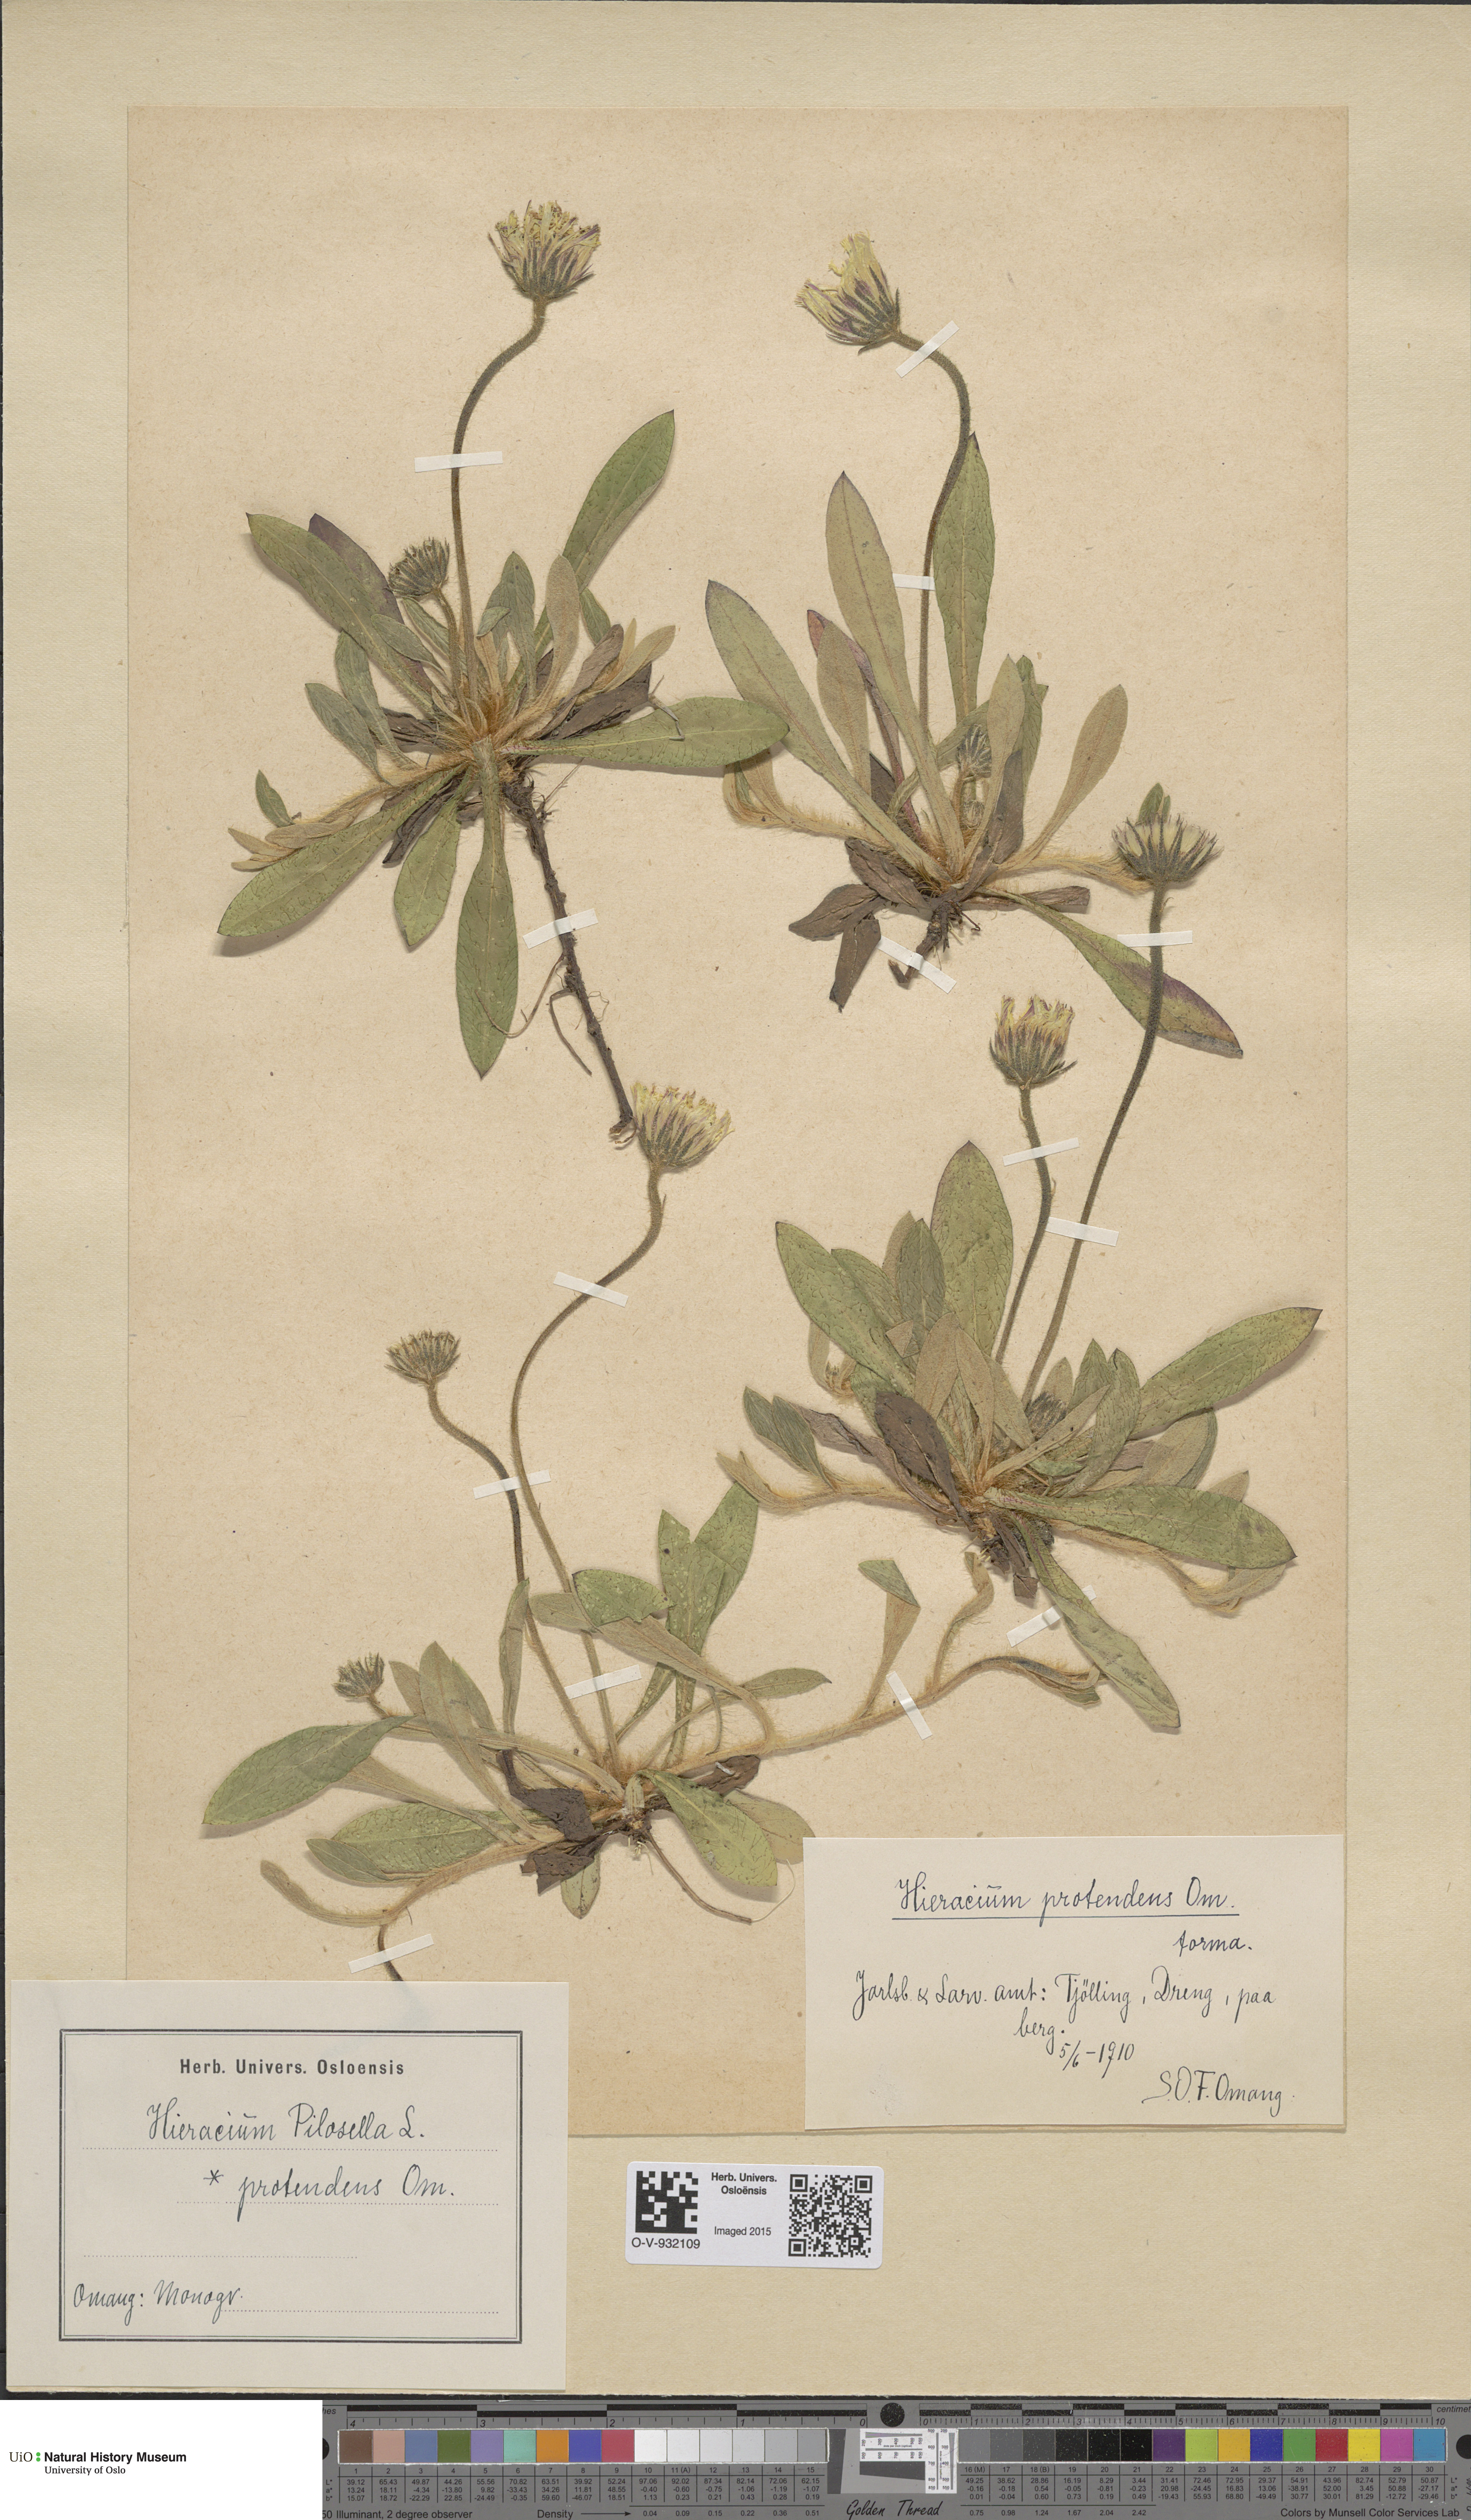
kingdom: Plantae
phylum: Tracheophyta
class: Magnoliopsida
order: Asterales
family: Asteraceae
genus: Pilosella
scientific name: Pilosella officinarum
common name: Mouse-ear hawkweed
